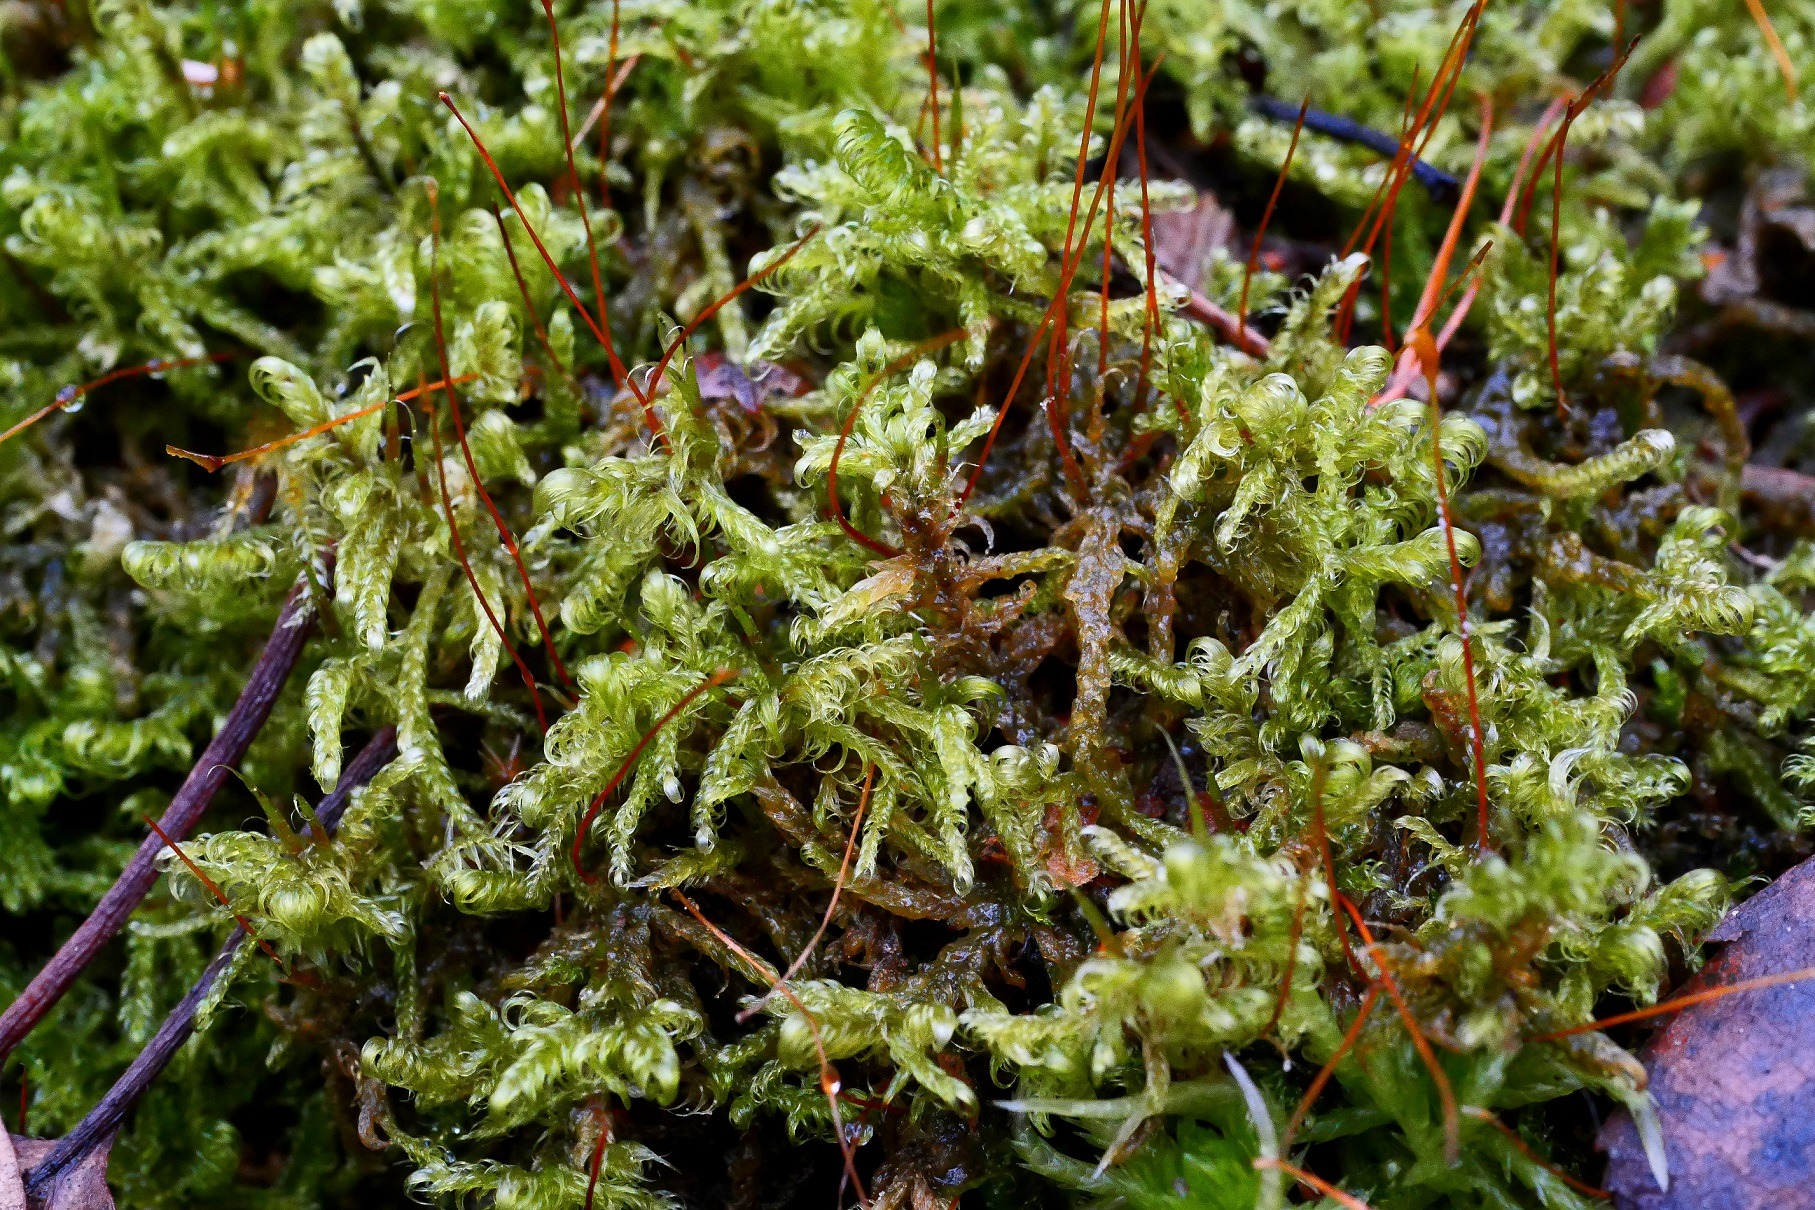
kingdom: Plantae
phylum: Bryophyta
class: Bryopsida
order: Hypnales
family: Scorpidiaceae
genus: Sanionia
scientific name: Sanionia uncinata
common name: Stribet krogblad
